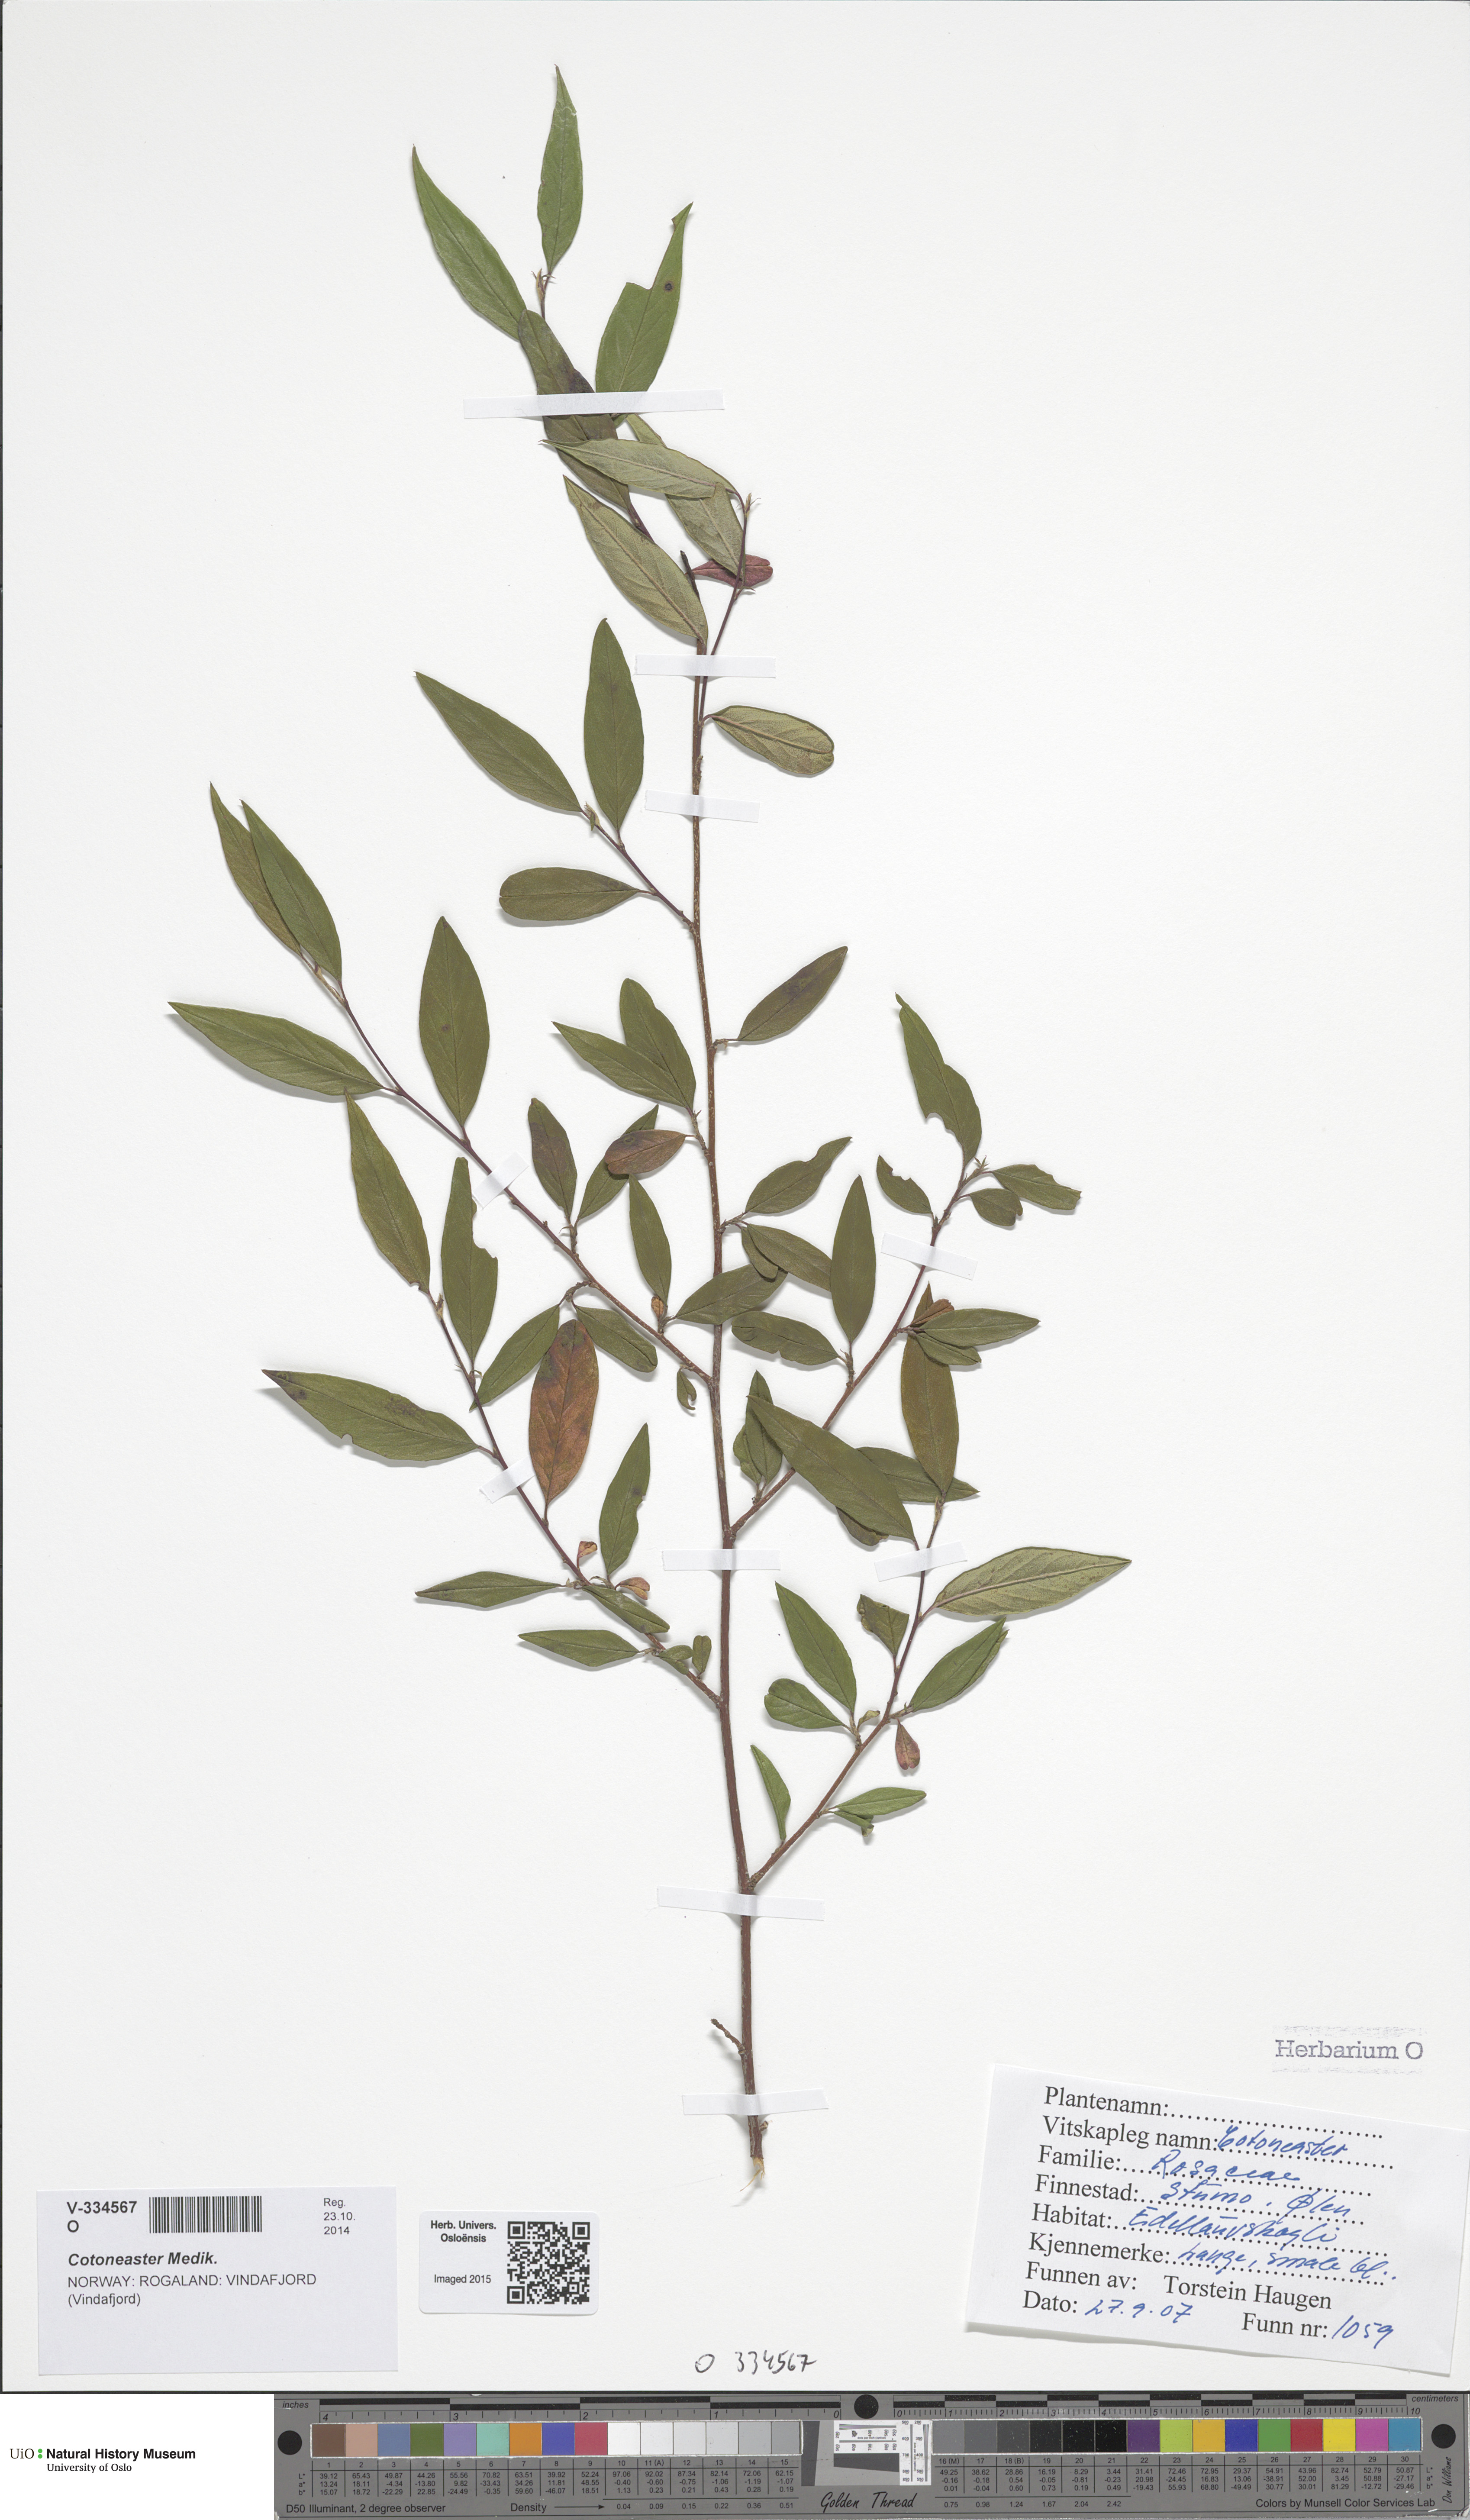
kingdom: Plantae
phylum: Tracheophyta
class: Magnoliopsida
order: Rosales
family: Rosaceae
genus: Cotoneaster
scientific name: Cotoneaster
